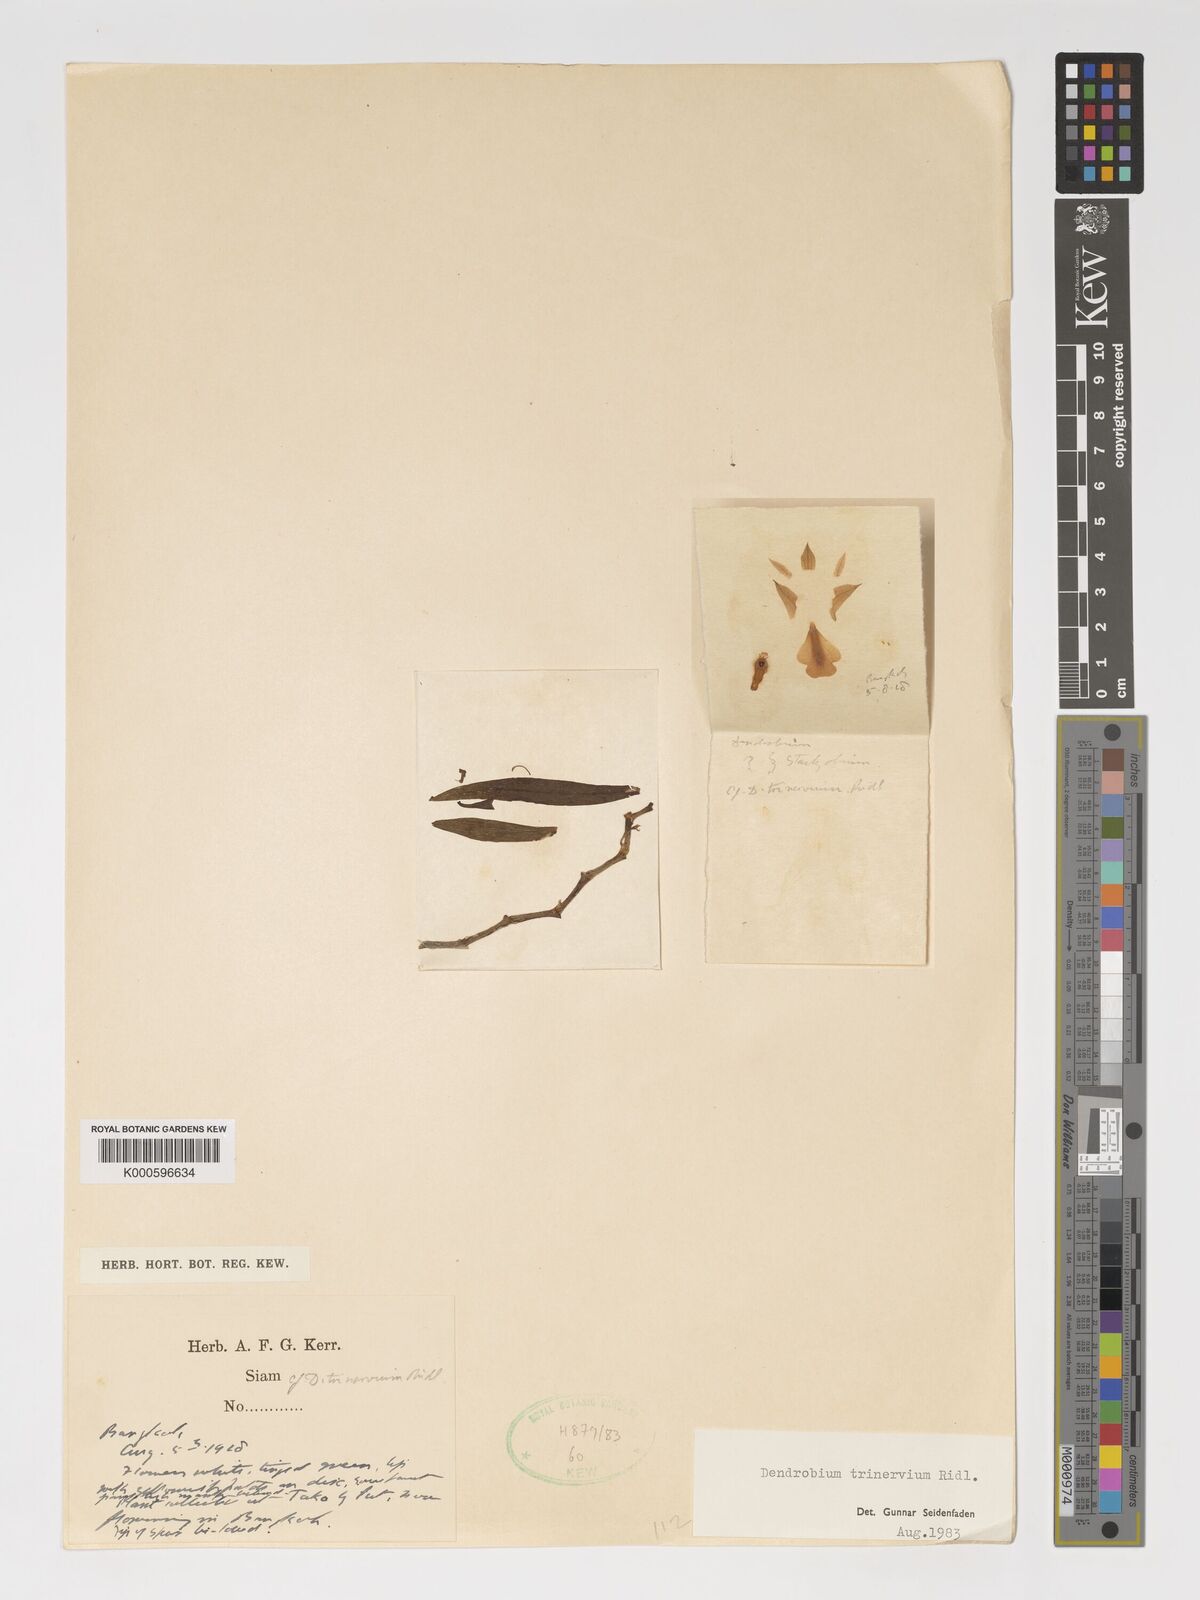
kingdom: Plantae
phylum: Tracheophyta
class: Liliopsida
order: Asparagales
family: Orchidaceae
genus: Dendrobium
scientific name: Dendrobium trinervium
